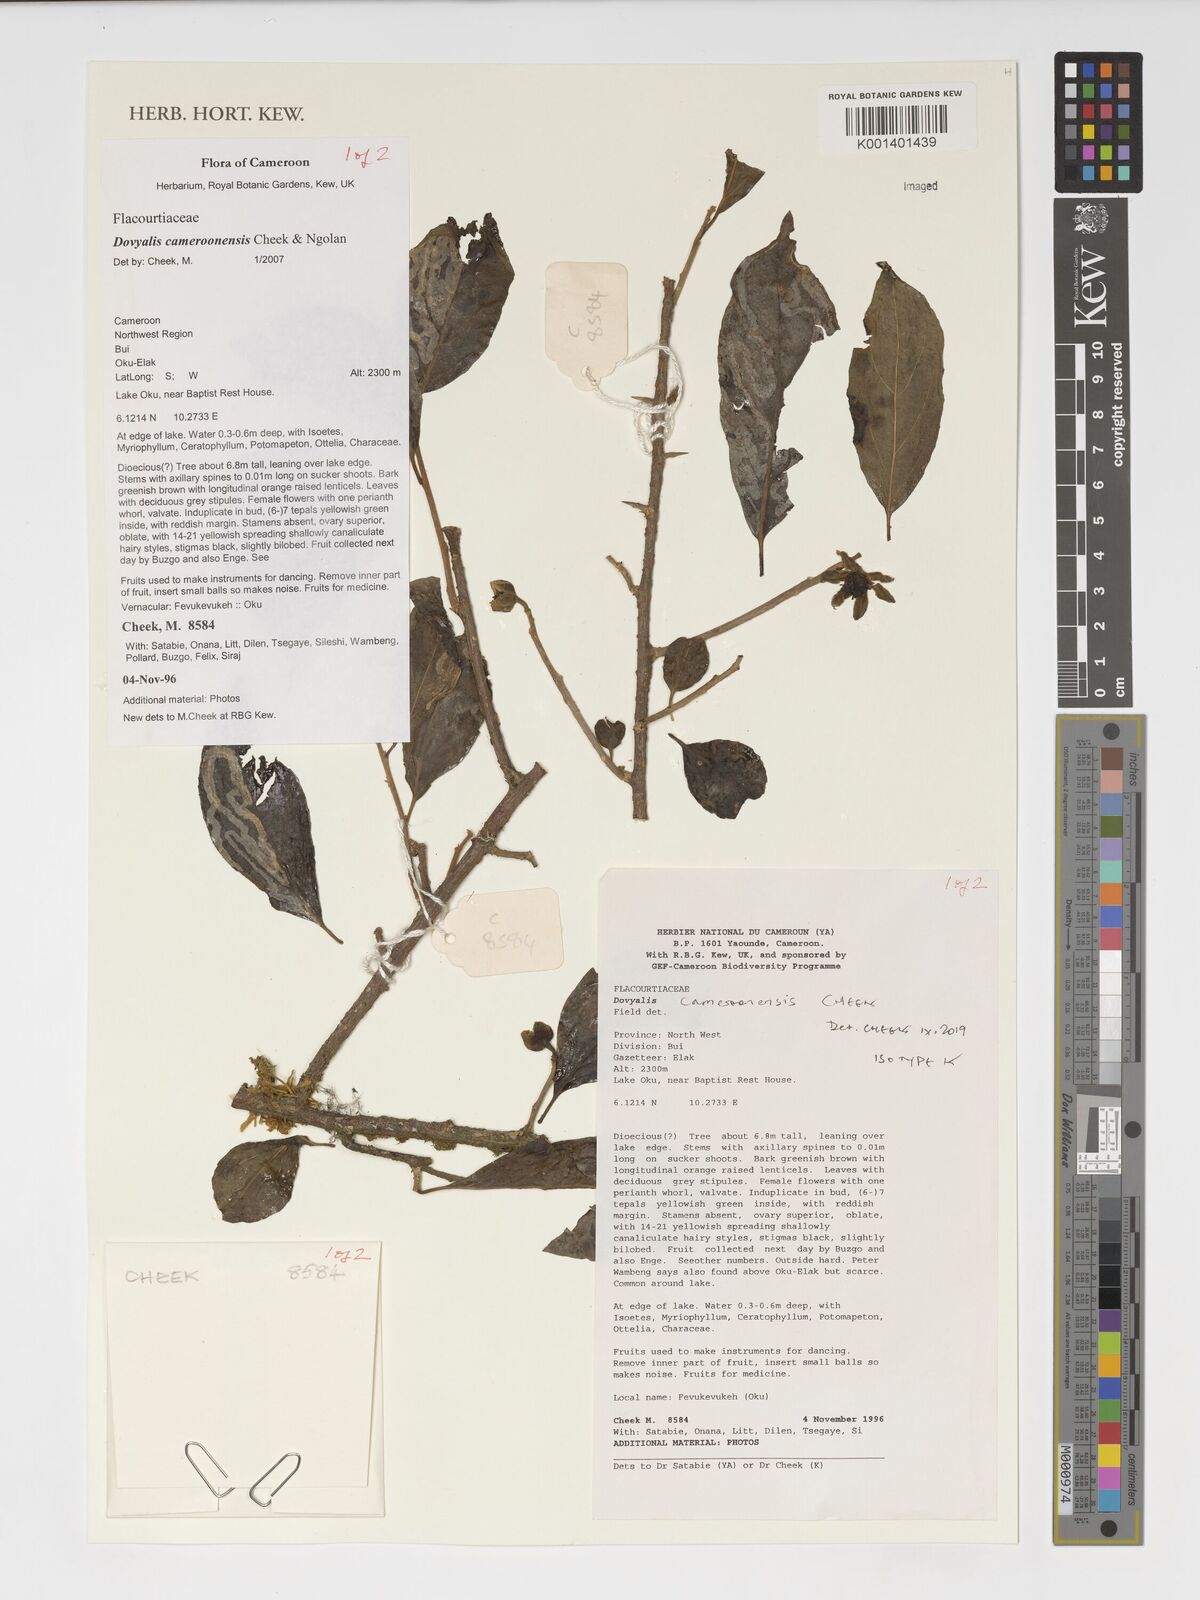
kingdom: Plantae
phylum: Tracheophyta
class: Magnoliopsida
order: Malpighiales
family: Salicaceae
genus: Dovyalis
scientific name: Dovyalis cameroonensis
